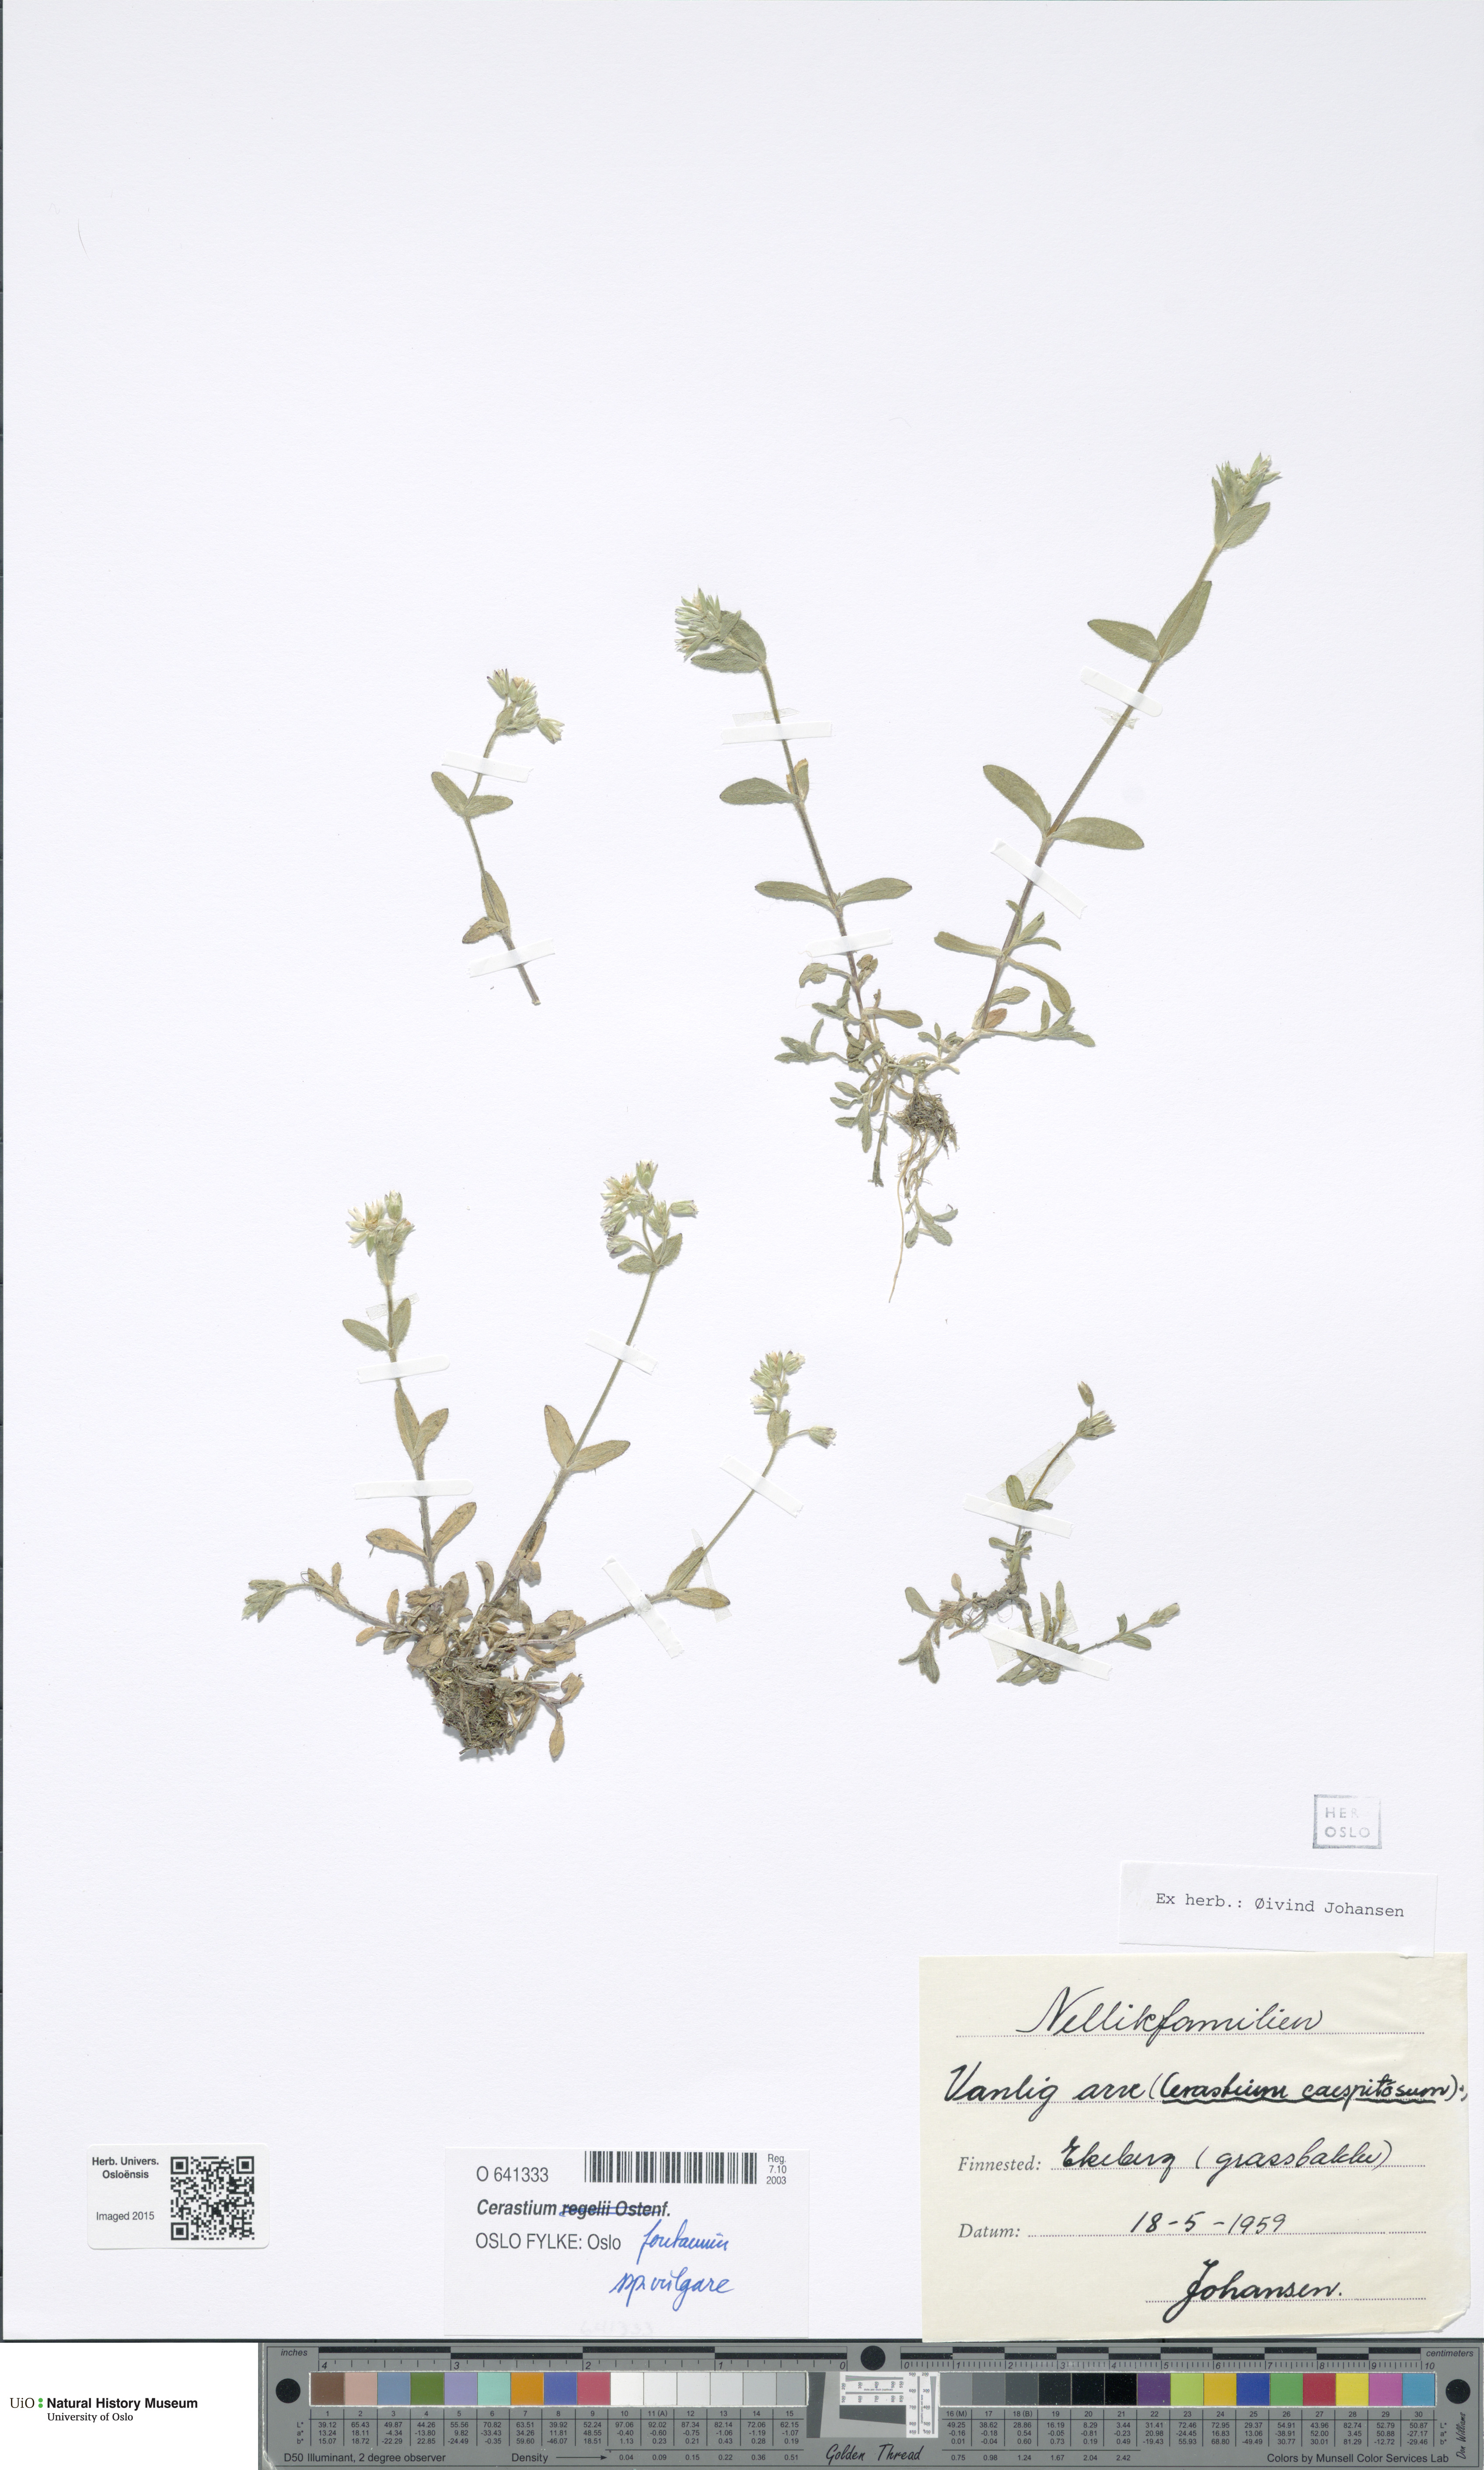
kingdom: Plantae
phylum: Tracheophyta
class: Magnoliopsida
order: Caryophyllales
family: Caryophyllaceae
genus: Cerastium
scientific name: Cerastium holosteoides
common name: Big chickweed
